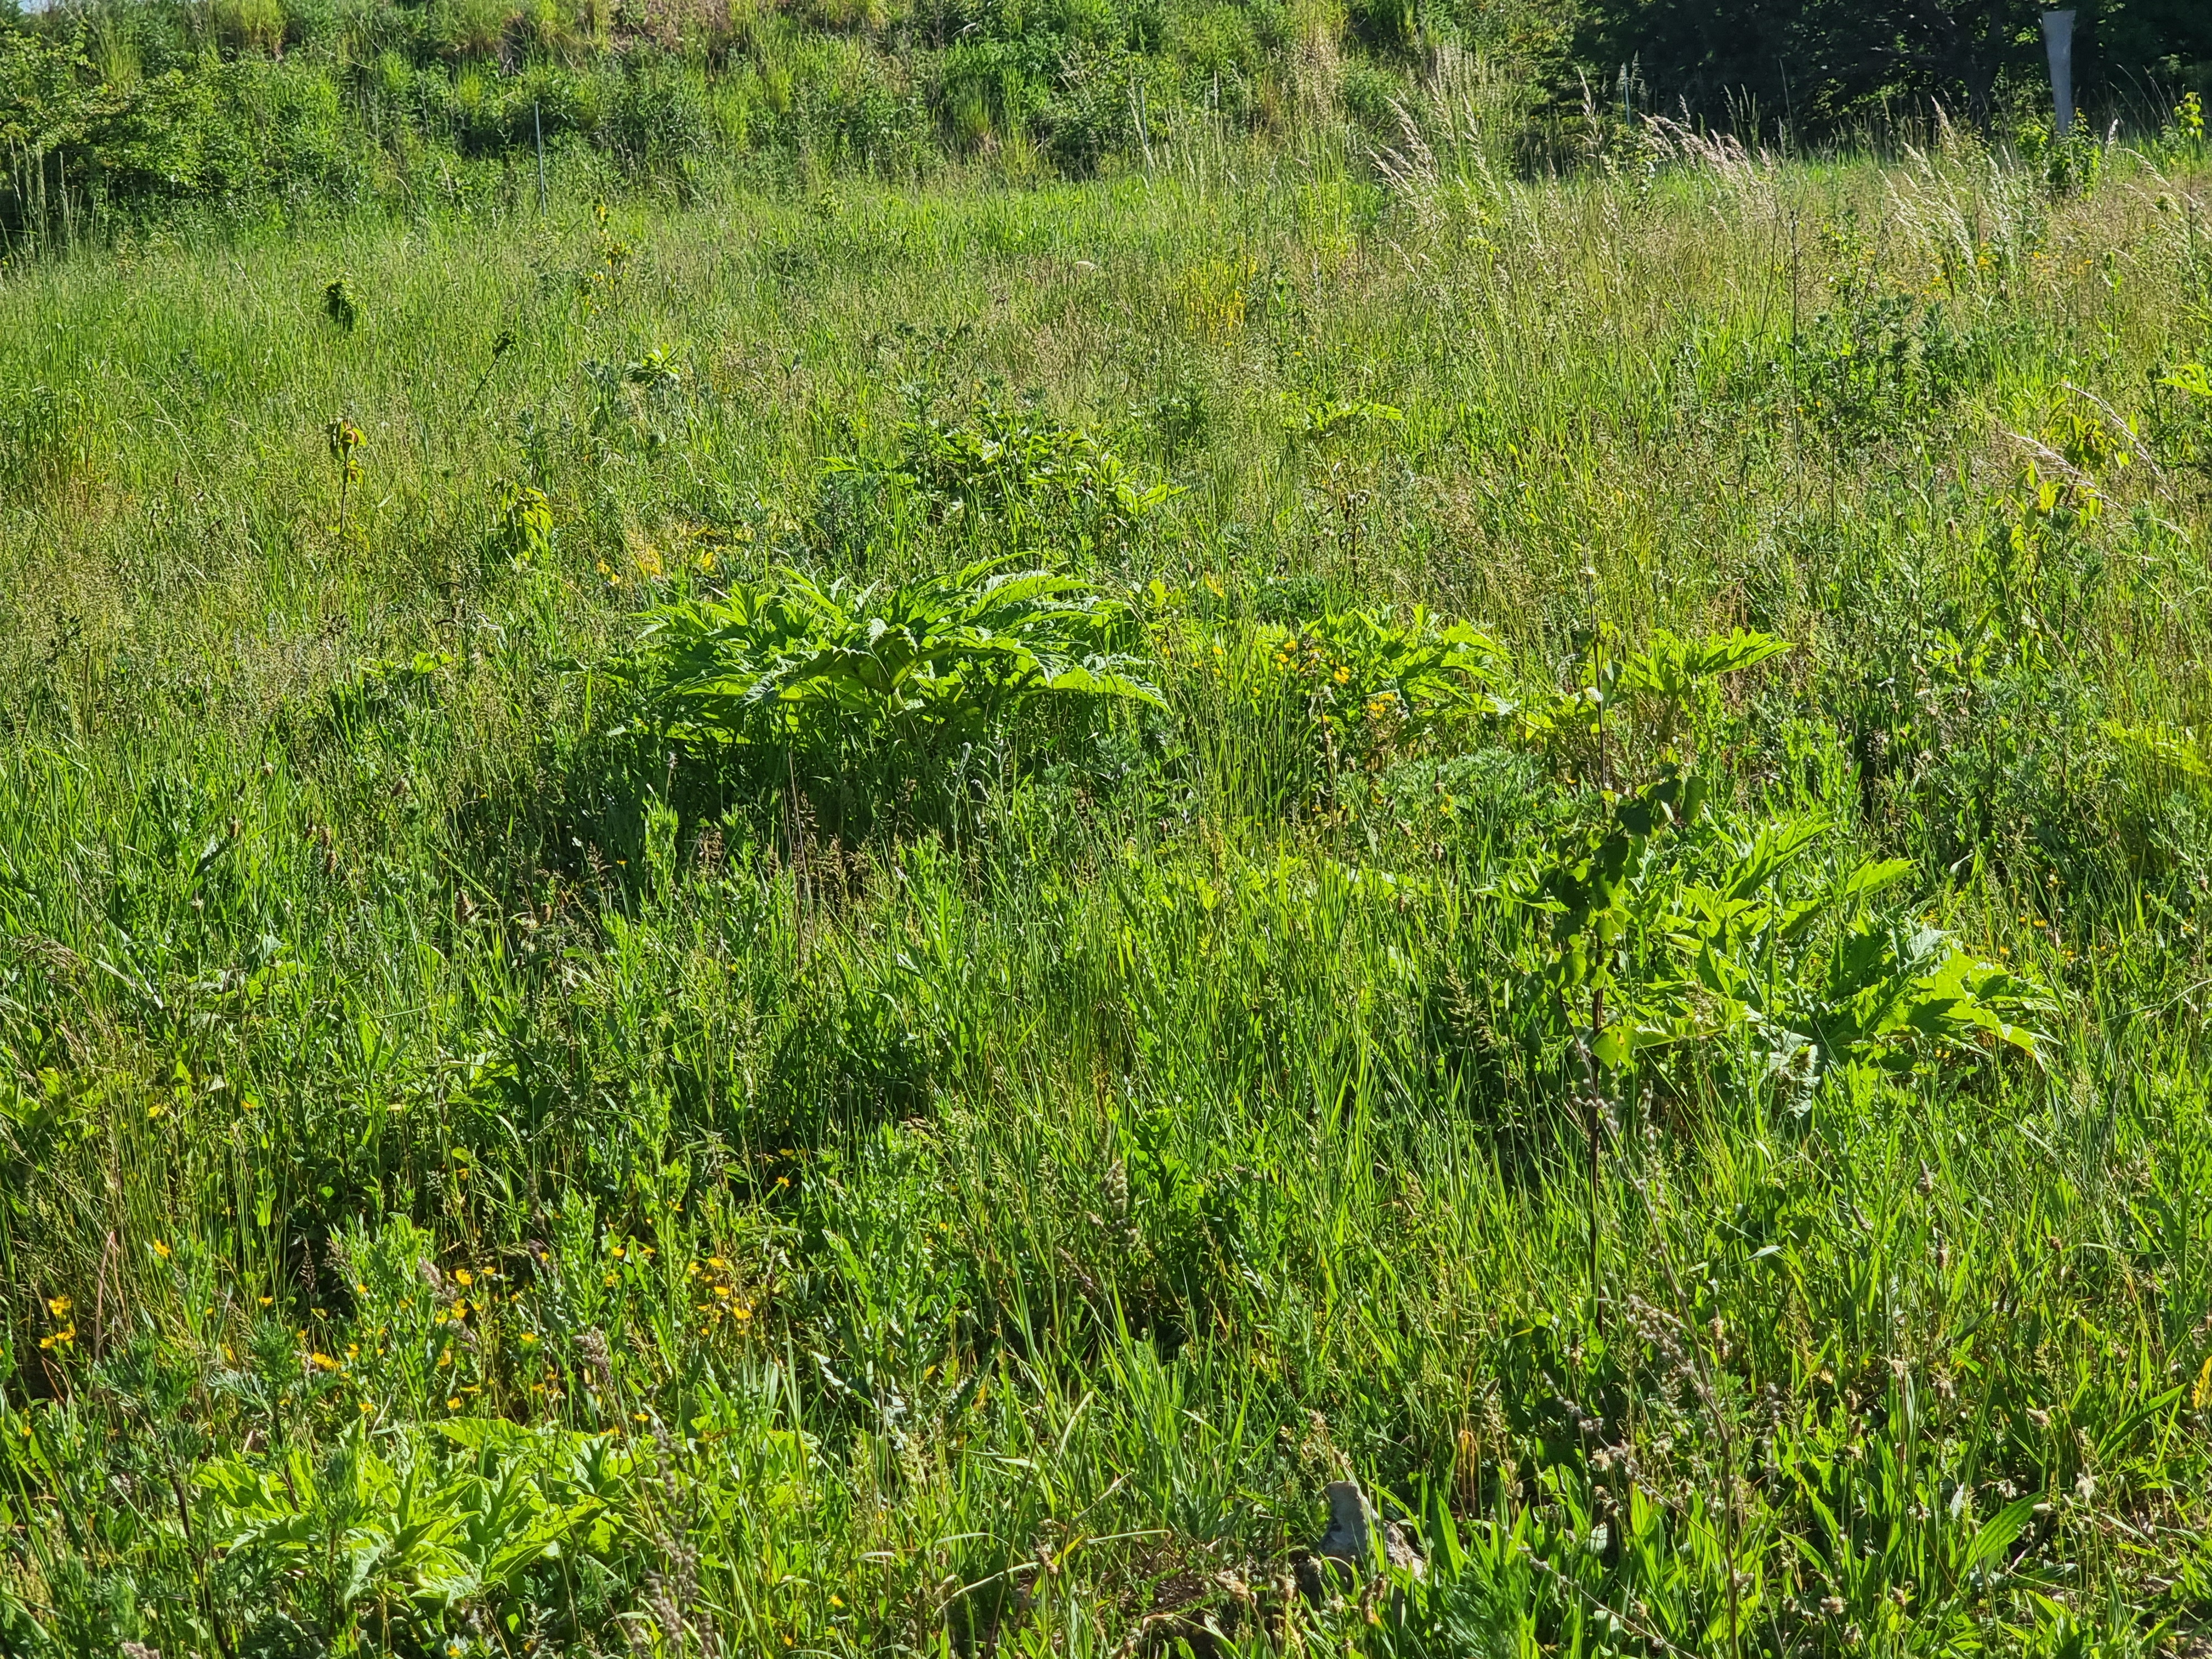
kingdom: Plantae
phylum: Tracheophyta
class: Magnoliopsida
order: Apiales
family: Apiaceae
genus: Heracleum
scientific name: Heracleum mantegazzianum
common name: Kæmpe-bjørneklo
